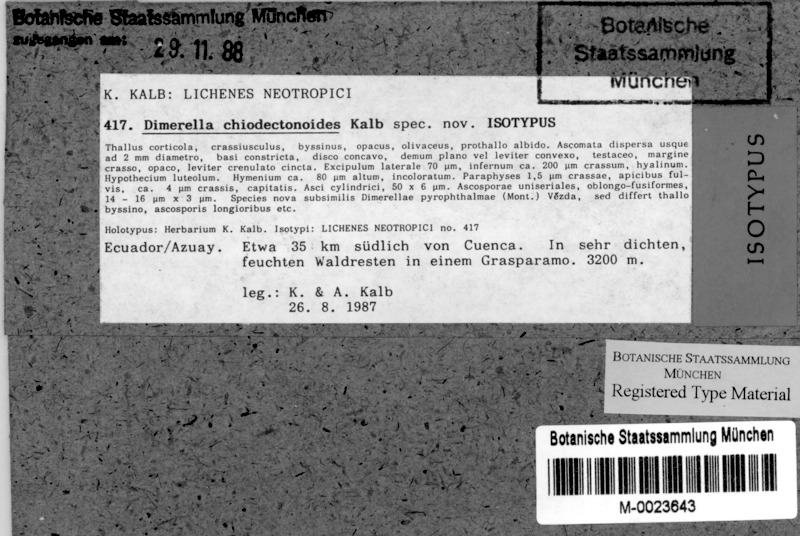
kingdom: Fungi
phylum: Ascomycota
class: Lecanoromycetes
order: Gyalectales
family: Gyalectaceae
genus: Dimerella
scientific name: Dimerella chiodectonoides
